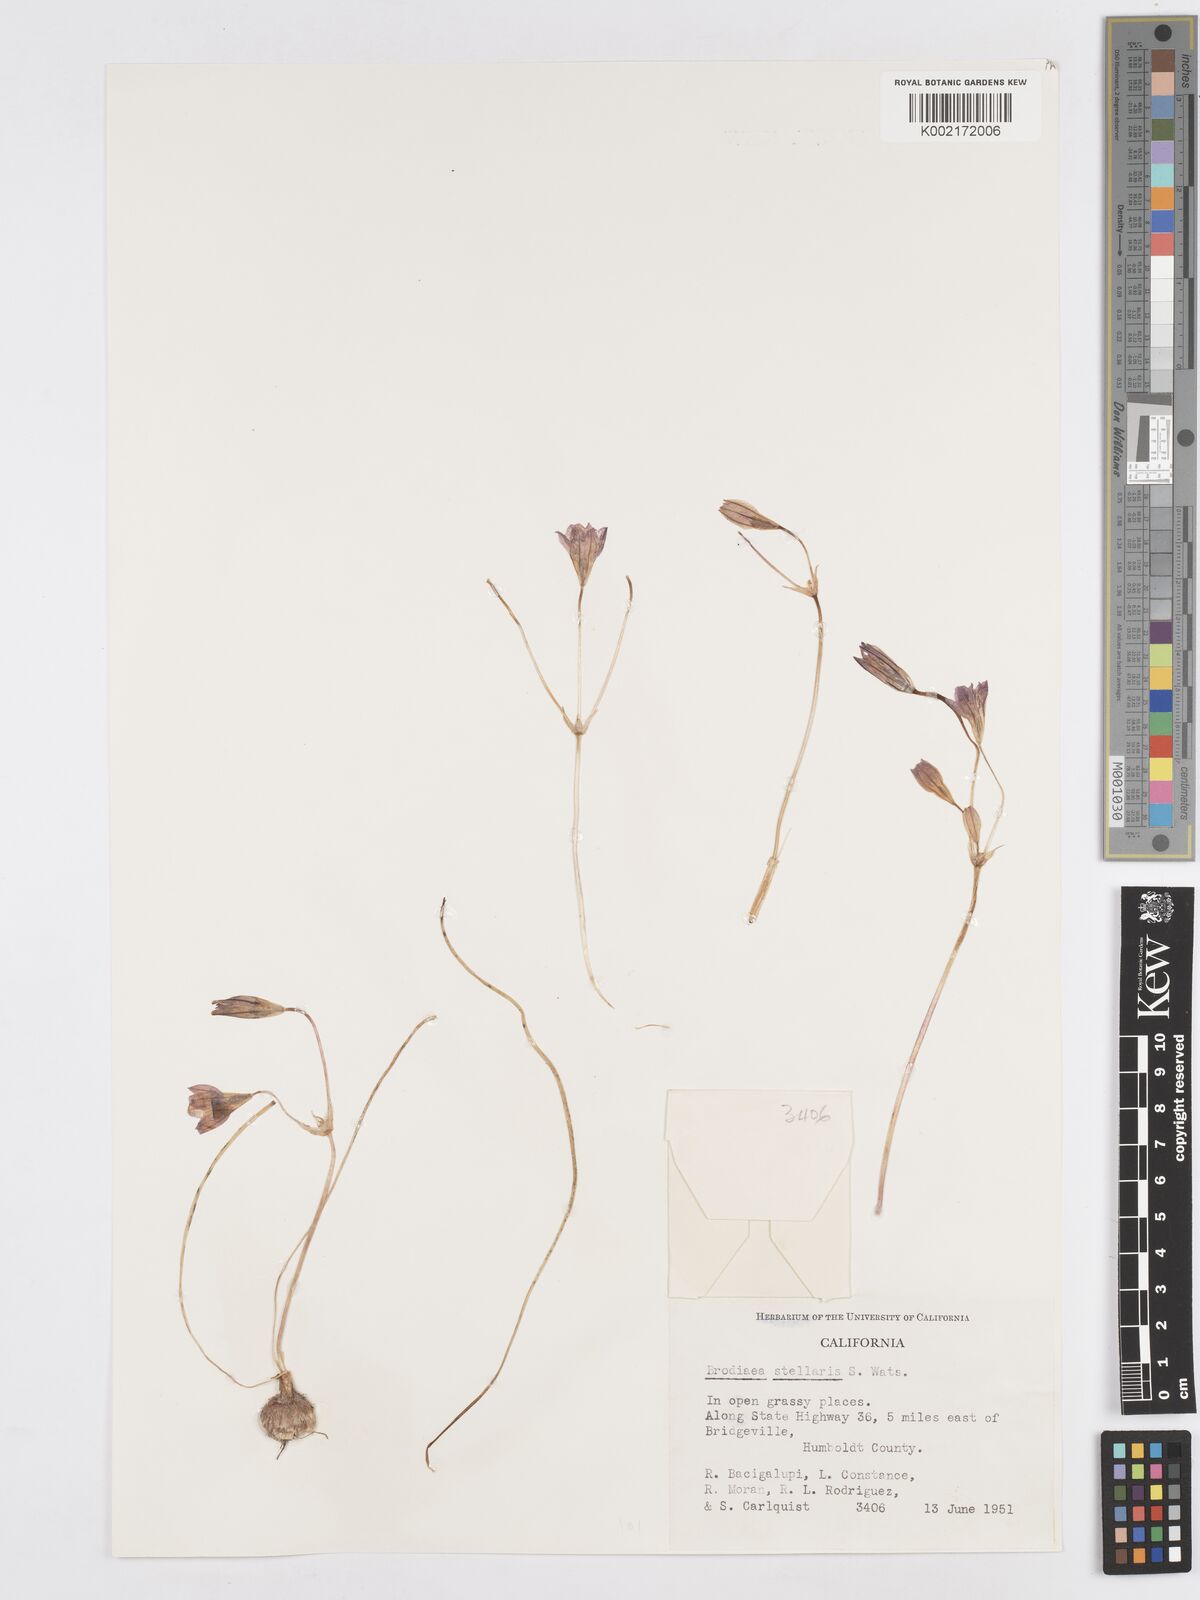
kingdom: Plantae
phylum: Tracheophyta
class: Liliopsida
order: Asparagales
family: Asparagaceae
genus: Brodiaea
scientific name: Brodiaea stellaris
